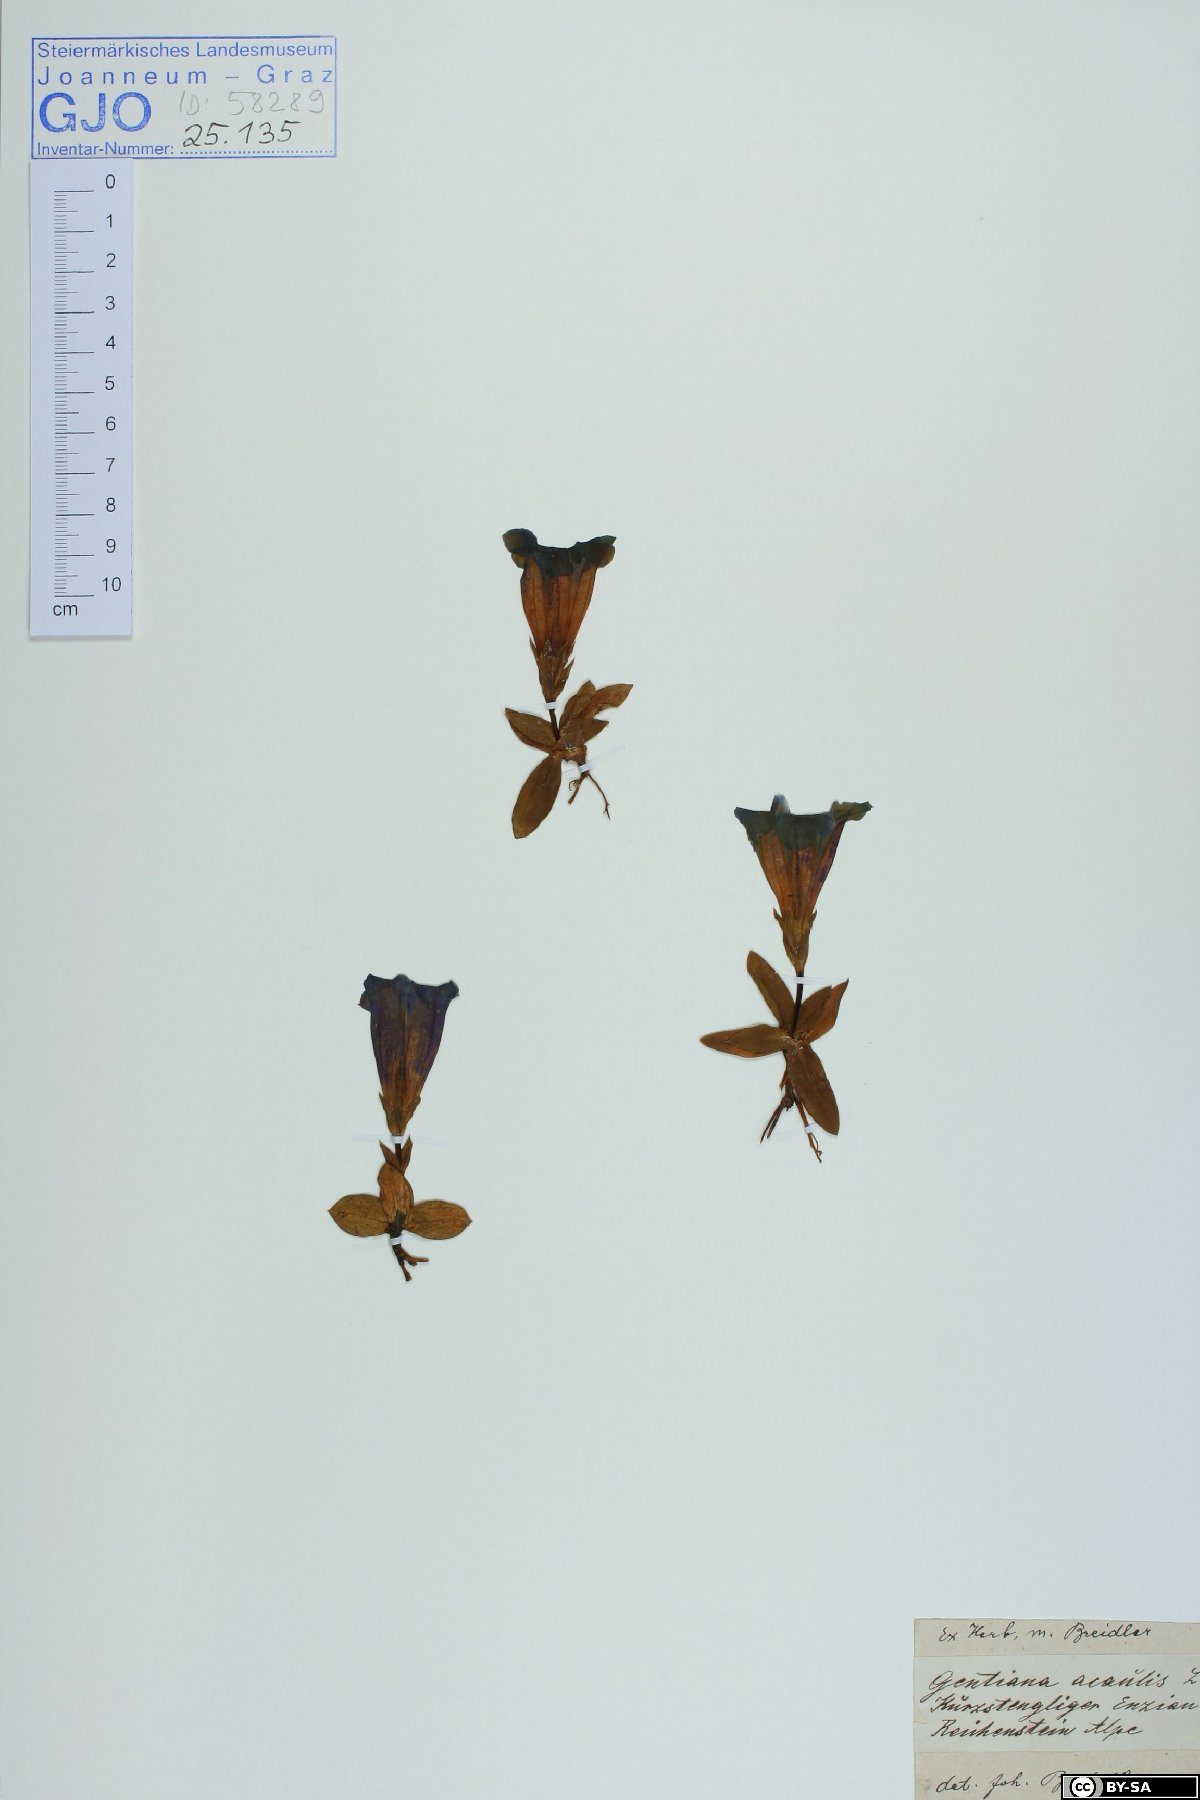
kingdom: Plantae
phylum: Tracheophyta
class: Magnoliopsida
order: Gentianales
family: Gentianaceae
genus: Gentiana
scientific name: Gentiana acaulis
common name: Trumpet gentian
